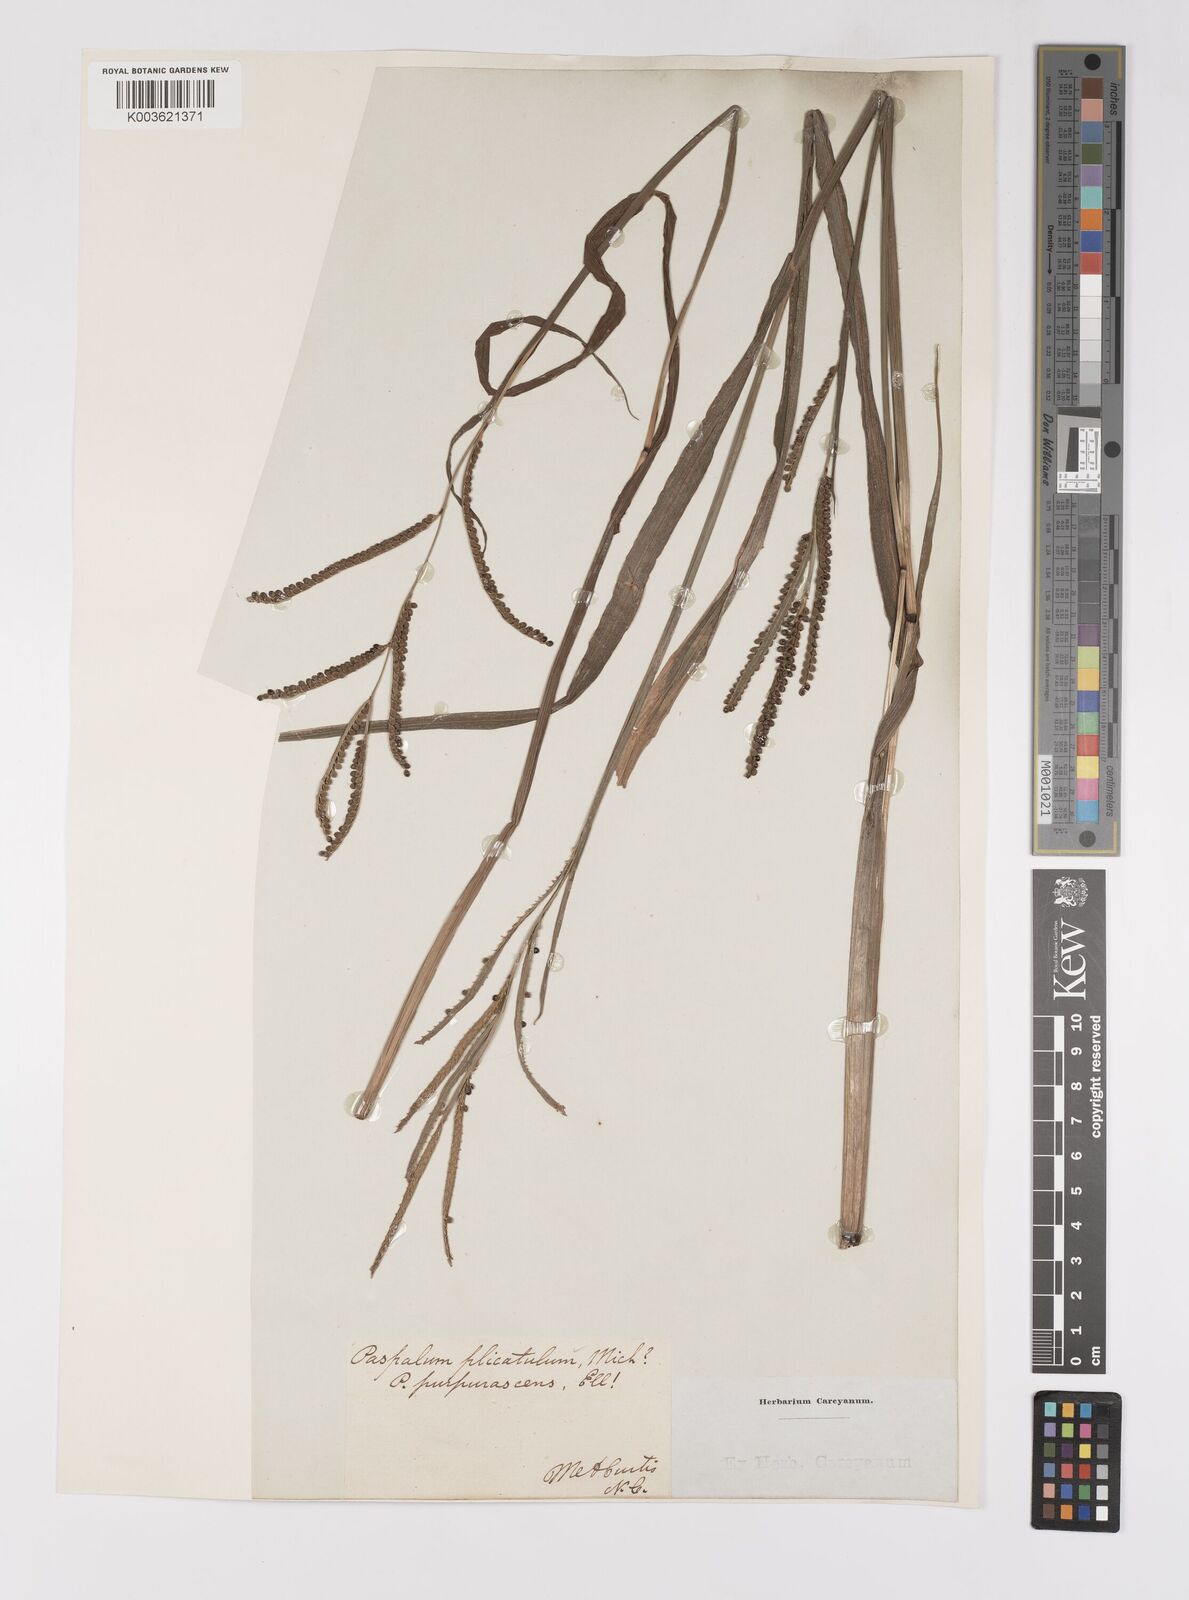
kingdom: Plantae
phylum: Tracheophyta
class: Liliopsida
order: Poales
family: Poaceae
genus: Paspalum
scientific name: Paspalum plicatulum
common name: Top paspalum
